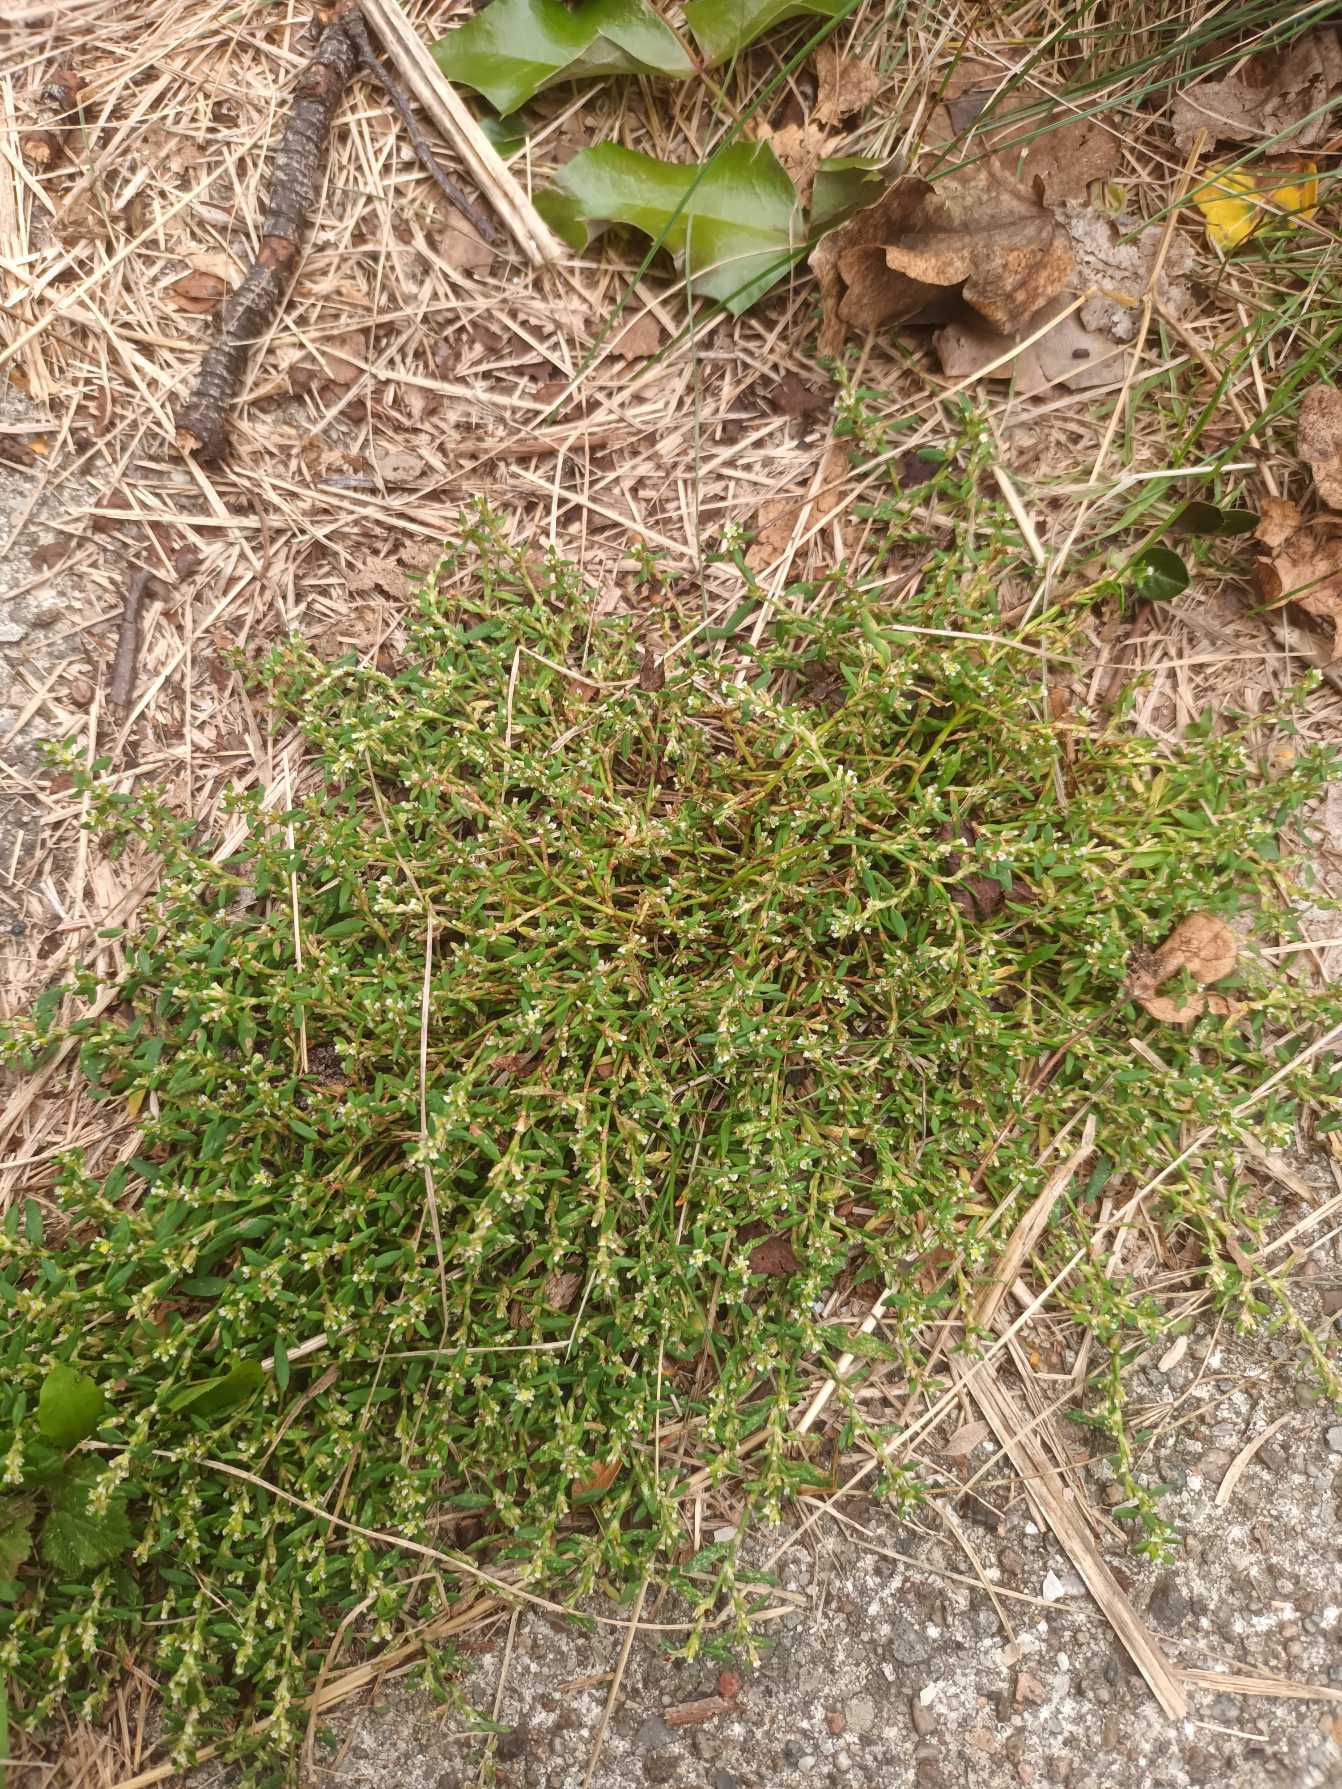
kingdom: Plantae
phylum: Tracheophyta
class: Magnoliopsida
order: Caryophyllales
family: Polygonaceae
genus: Polygonum
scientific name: Polygonum arenastrum
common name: Liggende vej-pileurt
